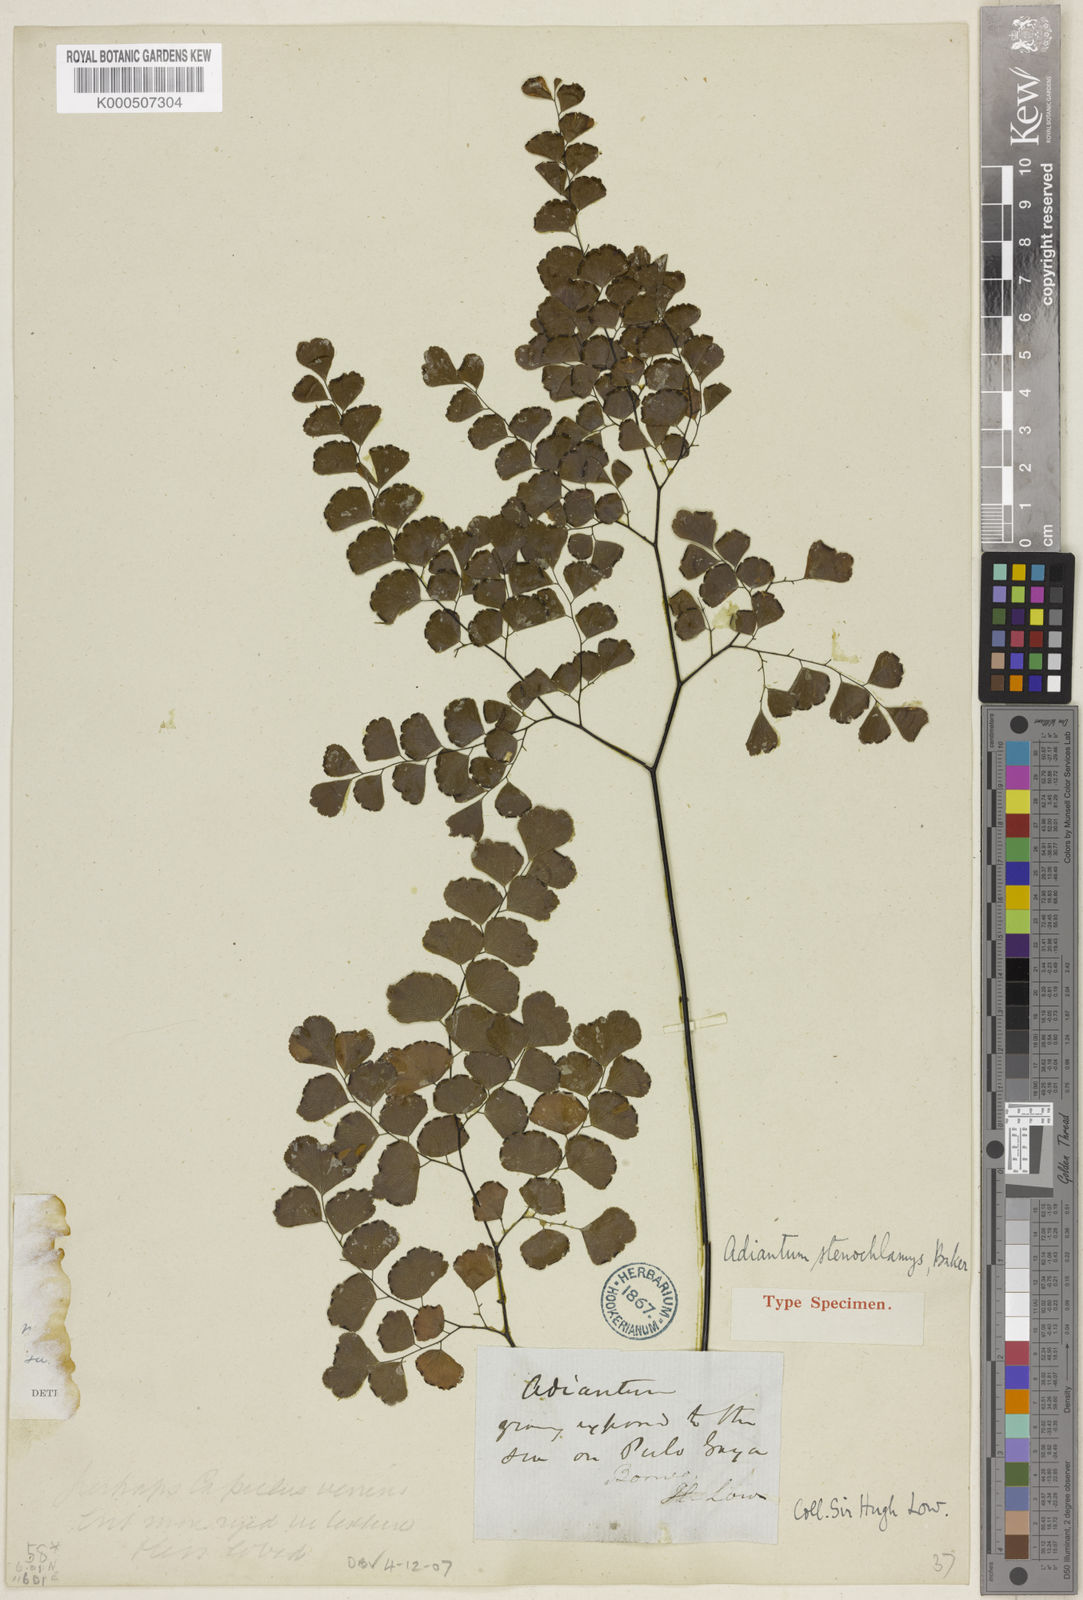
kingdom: Plantae
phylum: Tracheophyta
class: Polypodiopsida
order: Polypodiales
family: Pteridaceae
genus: Adiantum
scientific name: Adiantum stenochlamys
